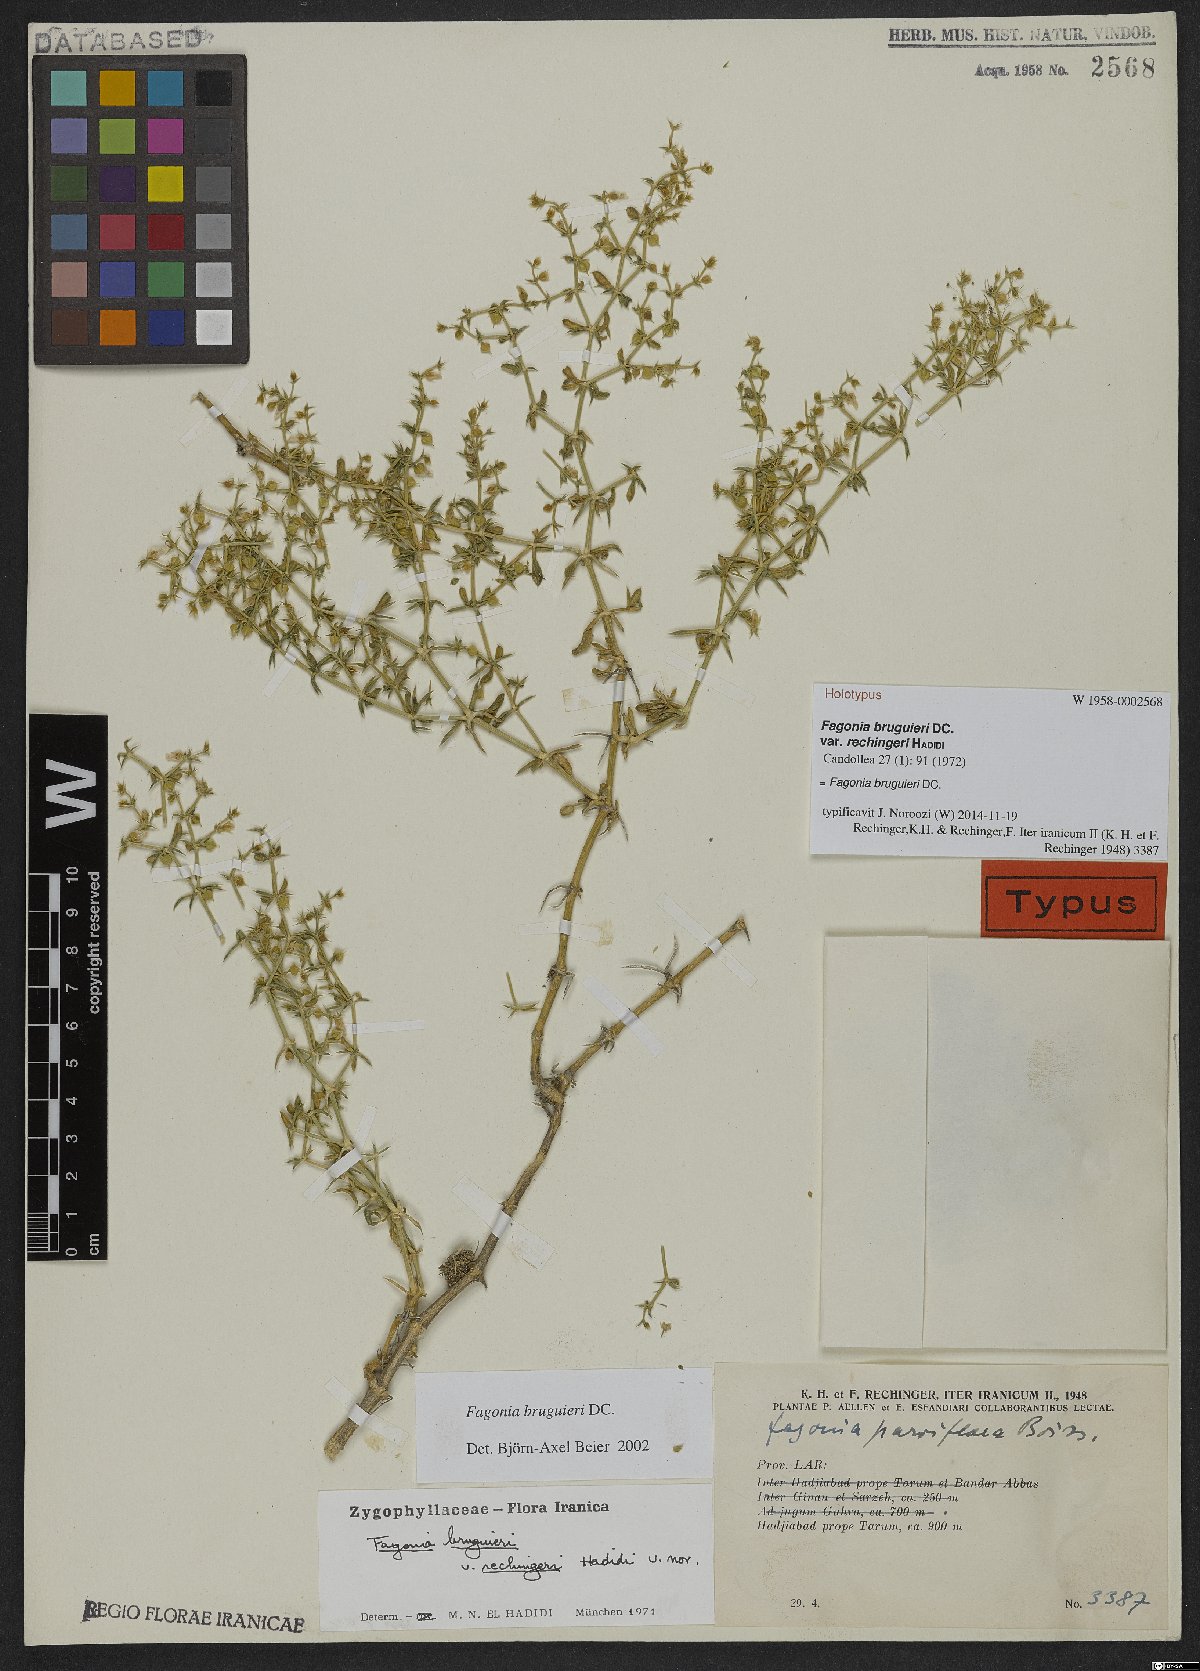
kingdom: Plantae
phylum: Tracheophyta
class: Magnoliopsida
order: Zygophyllales
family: Zygophyllaceae
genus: Fagonia
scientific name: Fagonia bruguieri
